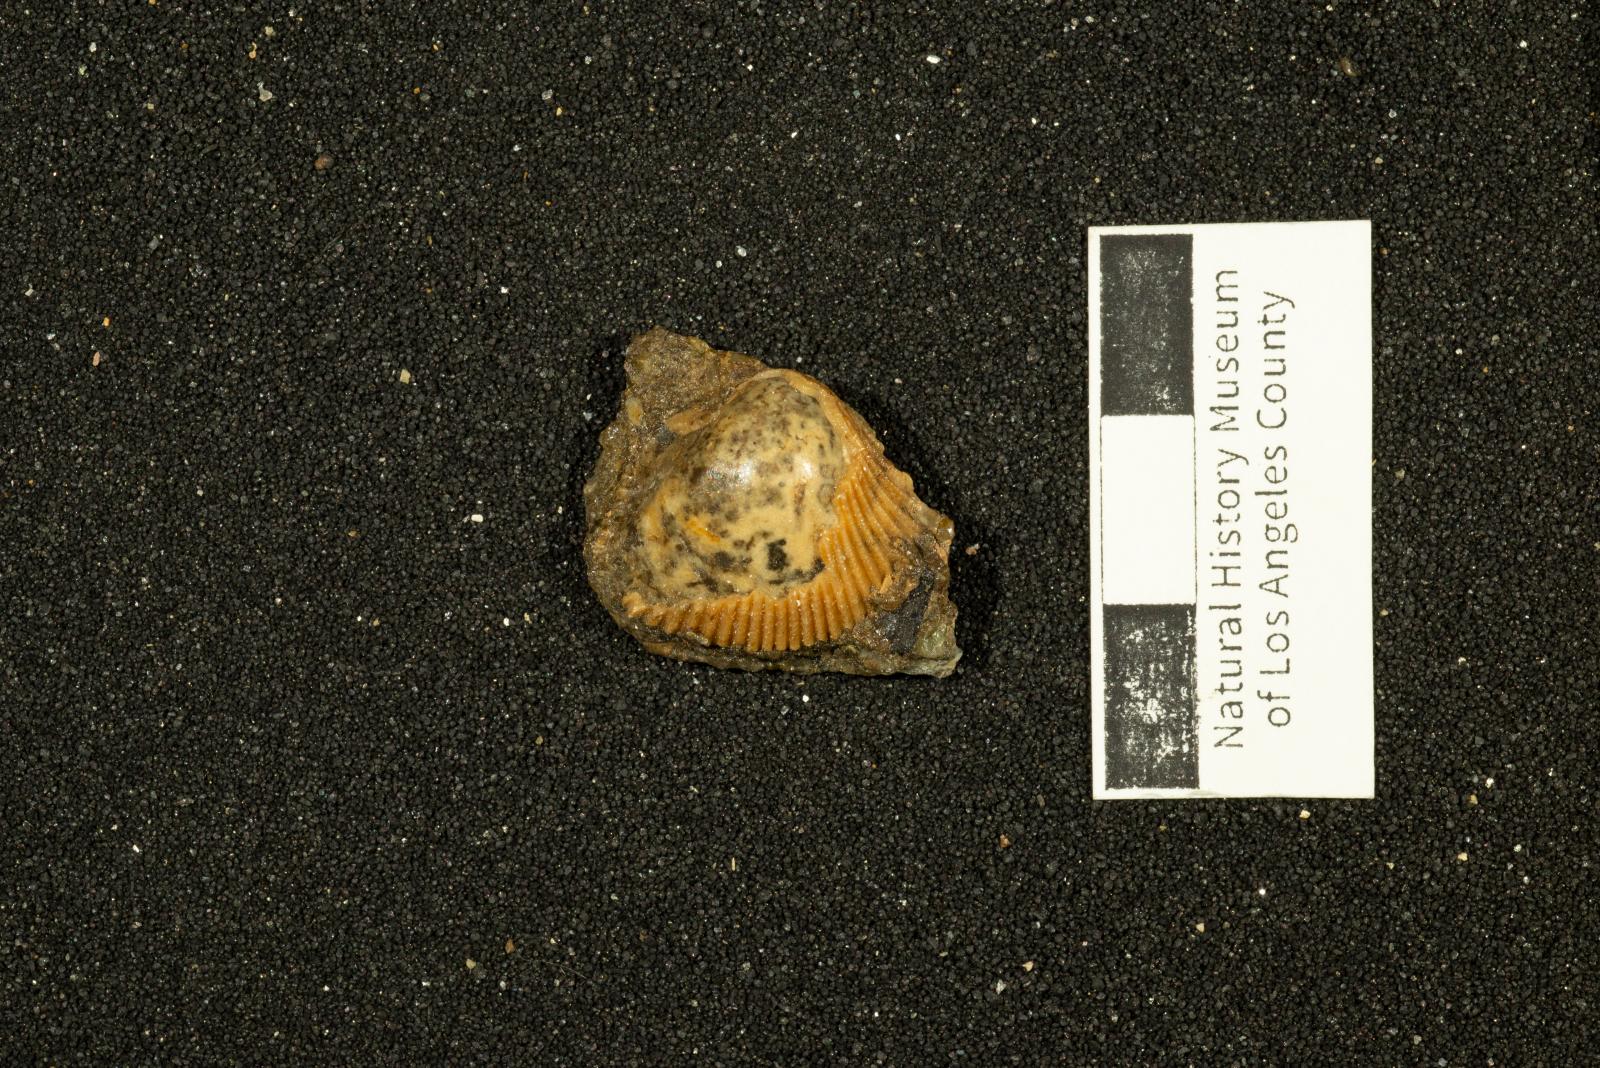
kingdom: Animalia
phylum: Mollusca
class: Bivalvia
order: Cardiida
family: Cardiidae
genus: Americardia
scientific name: Americardia
